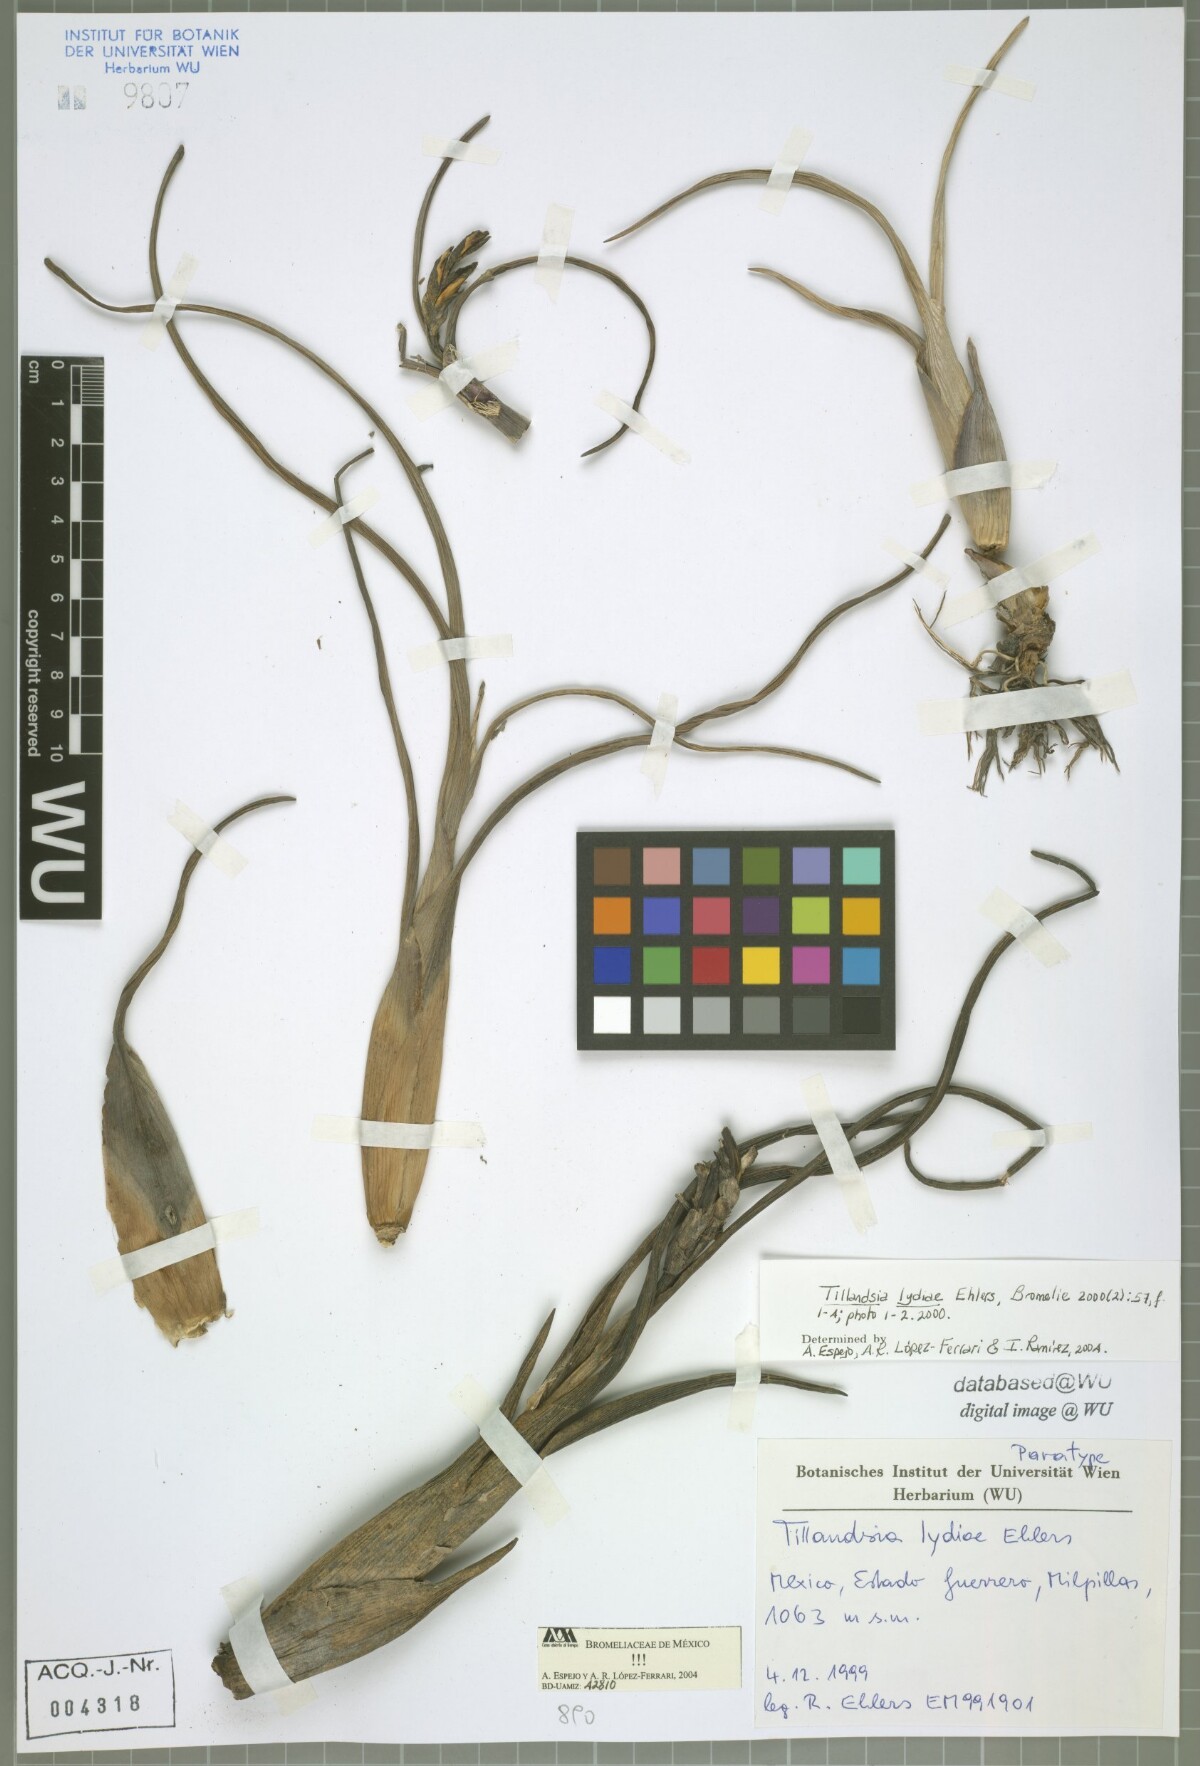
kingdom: Plantae
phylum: Tracheophyta
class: Liliopsida
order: Poales
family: Bromeliaceae
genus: Tillandsia
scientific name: Tillandsia lydiae
